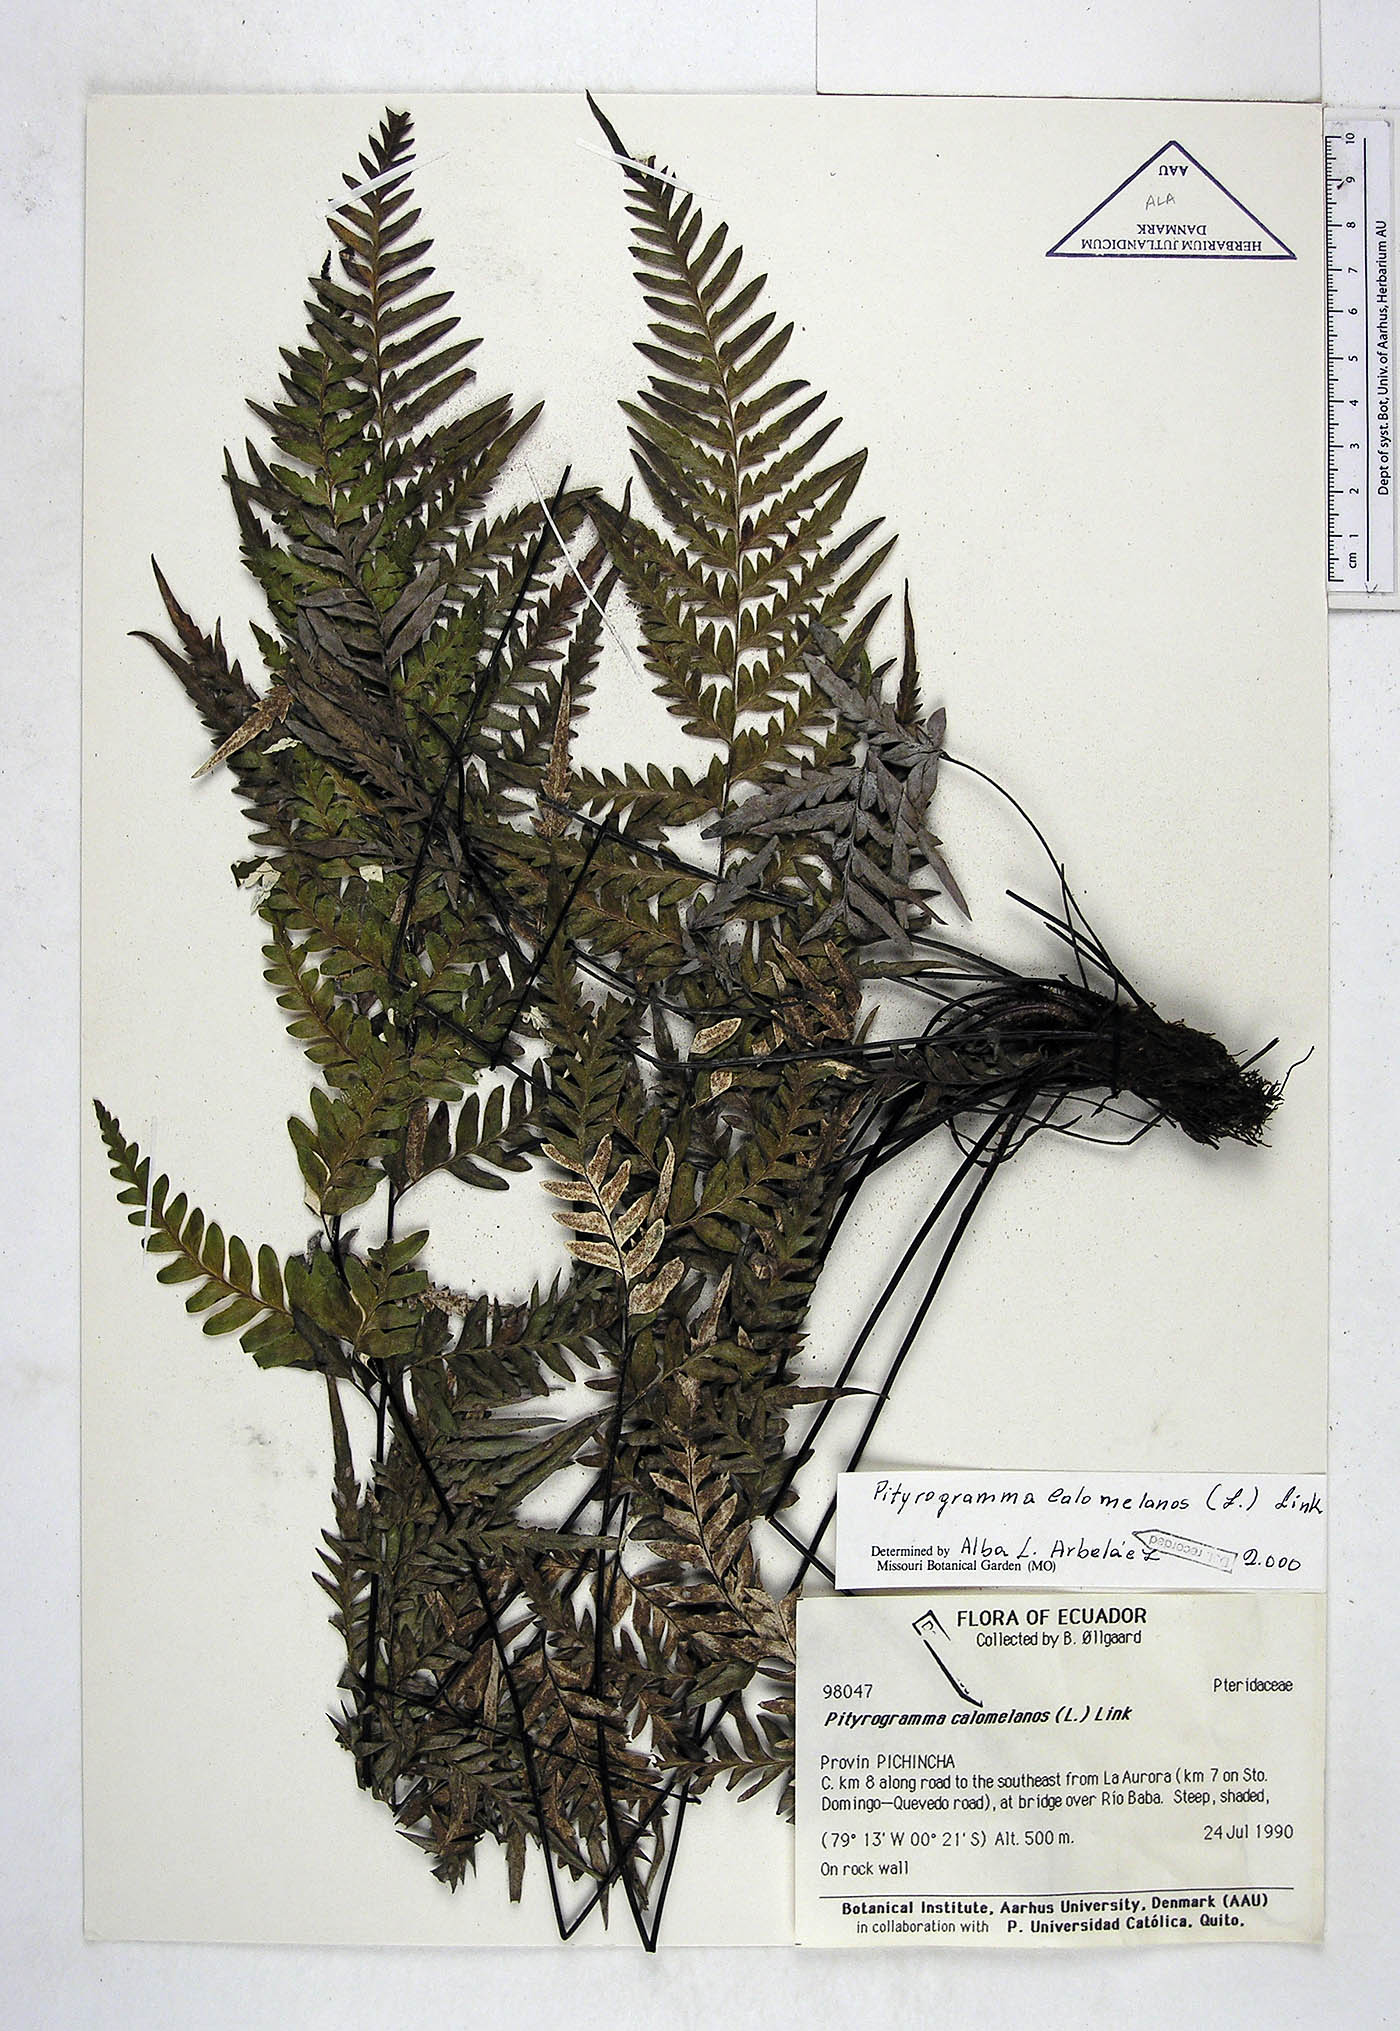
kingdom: Plantae
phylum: Tracheophyta
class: Polypodiopsida
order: Polypodiales
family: Pteridaceae
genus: Pityrogramma
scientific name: Pityrogramma calomelanos
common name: Dixie silverback fern
